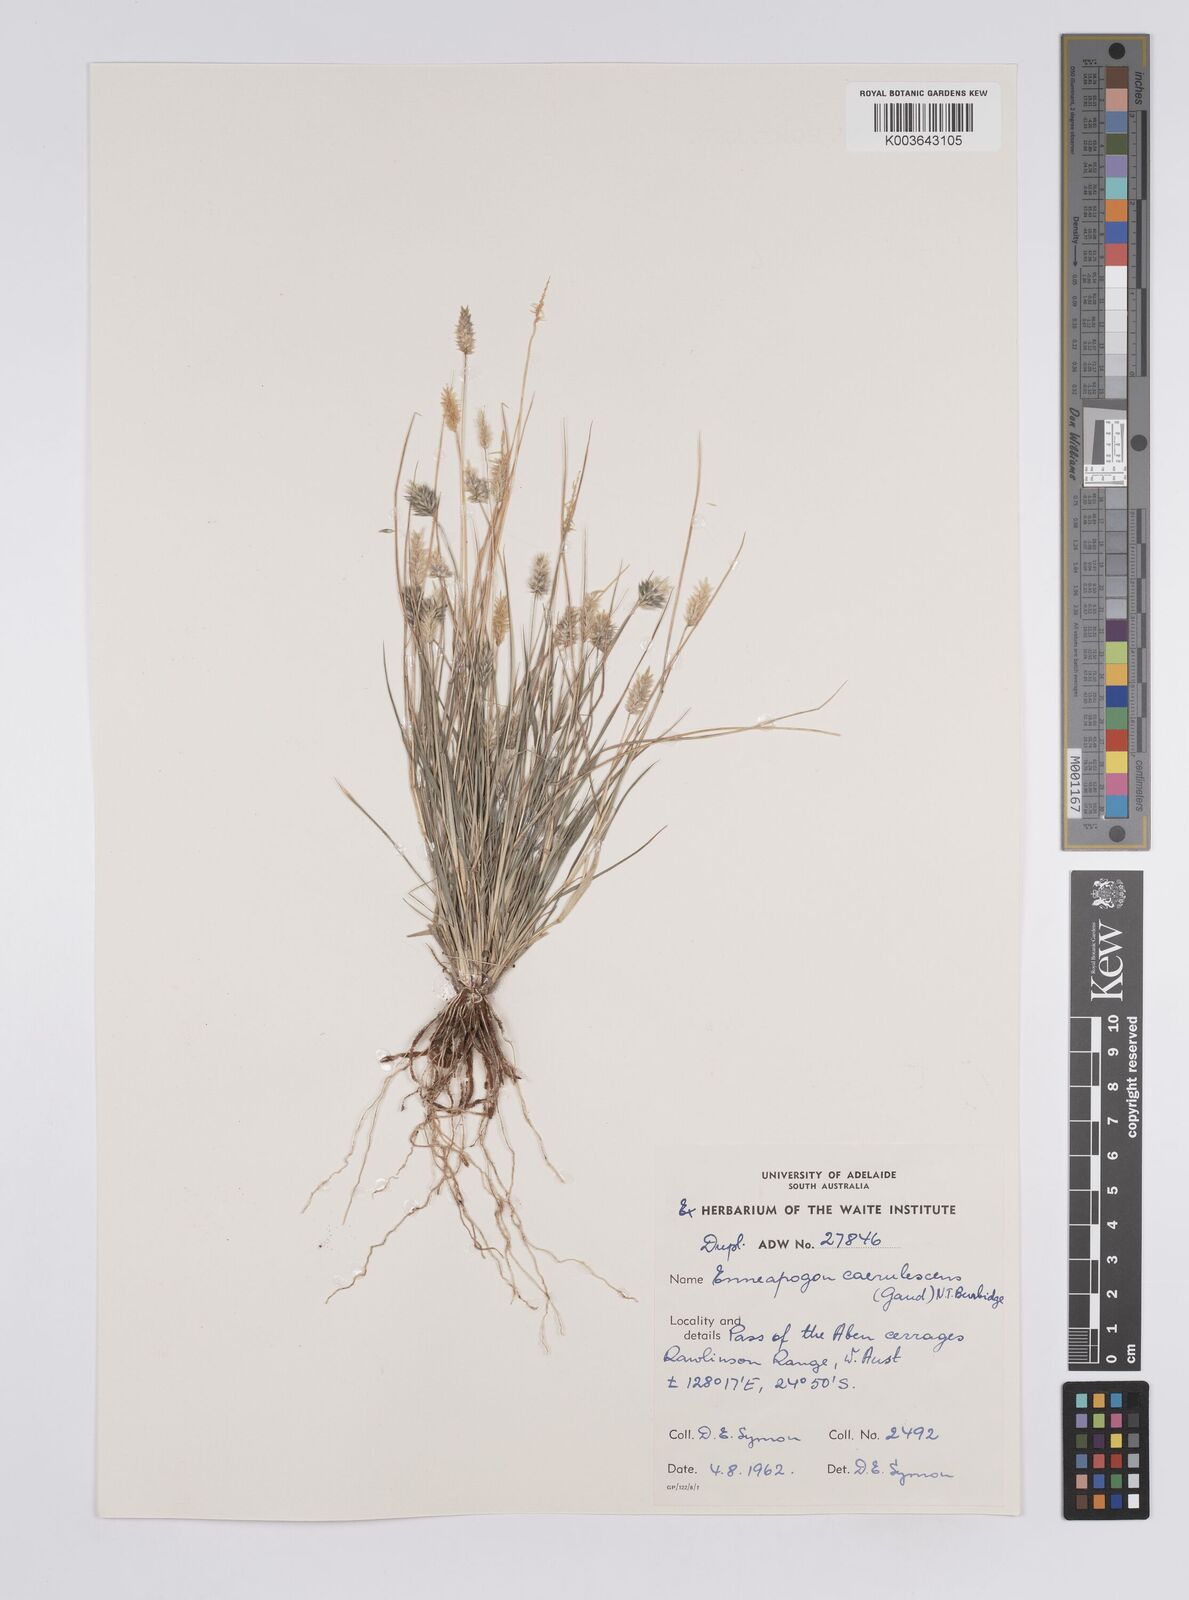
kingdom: Plantae
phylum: Tracheophyta
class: Liliopsida
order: Poales
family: Poaceae
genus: Enneapogon
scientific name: Enneapogon caerulescens
